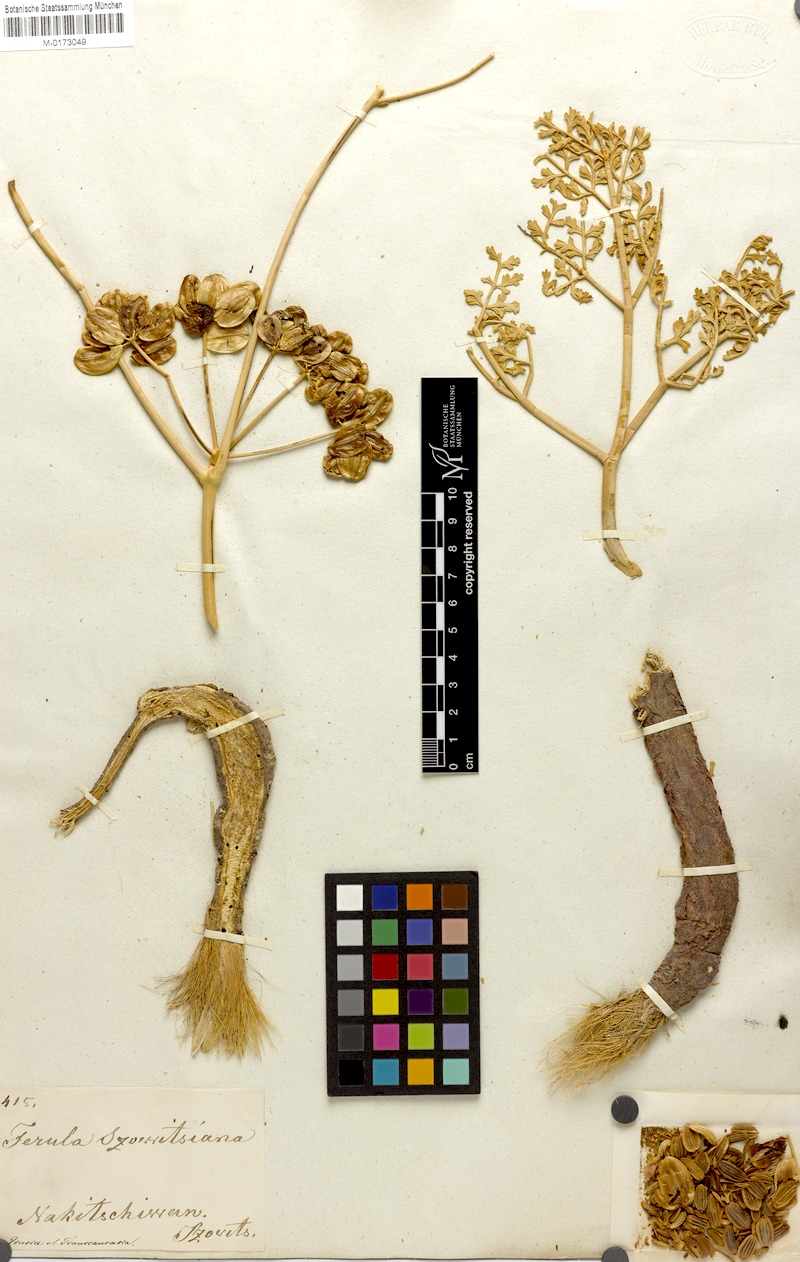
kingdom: Plantae
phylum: Tracheophyta
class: Magnoliopsida
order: Apiales
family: Apiaceae
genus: Ferula
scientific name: Ferula szowitsiana
